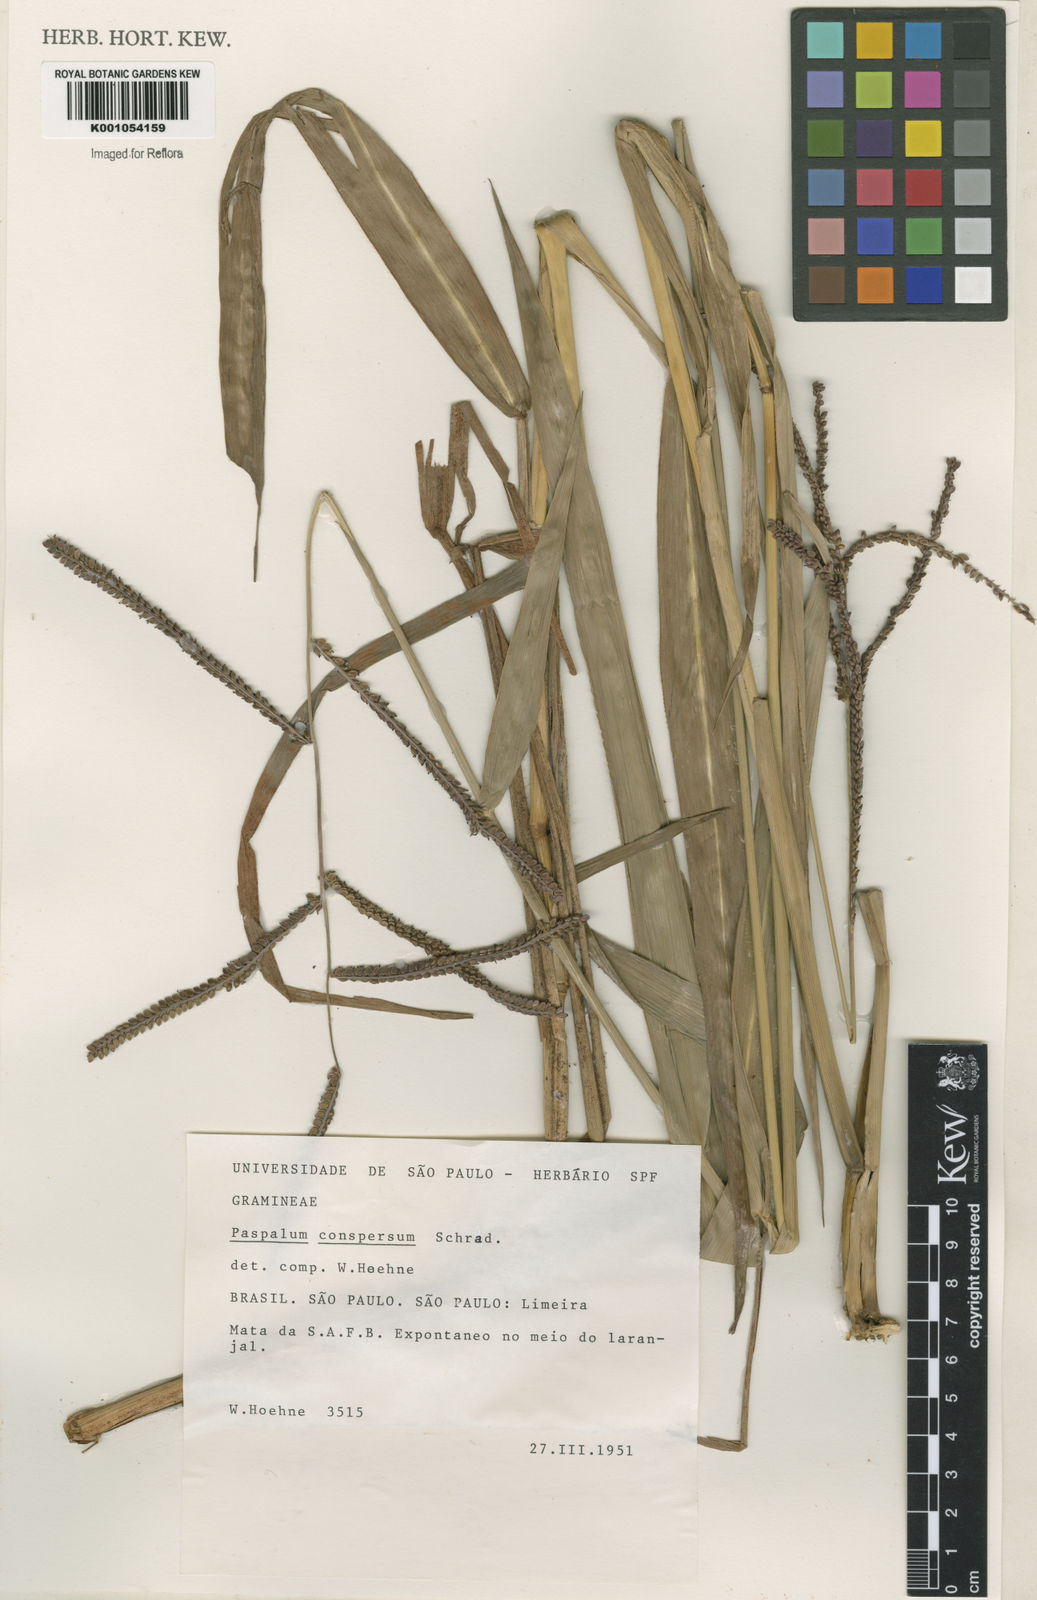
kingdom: Plantae
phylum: Tracheophyta
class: Liliopsida
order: Poales
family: Poaceae
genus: Paspalum
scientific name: Paspalum conspersum
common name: Scattered paspalum
